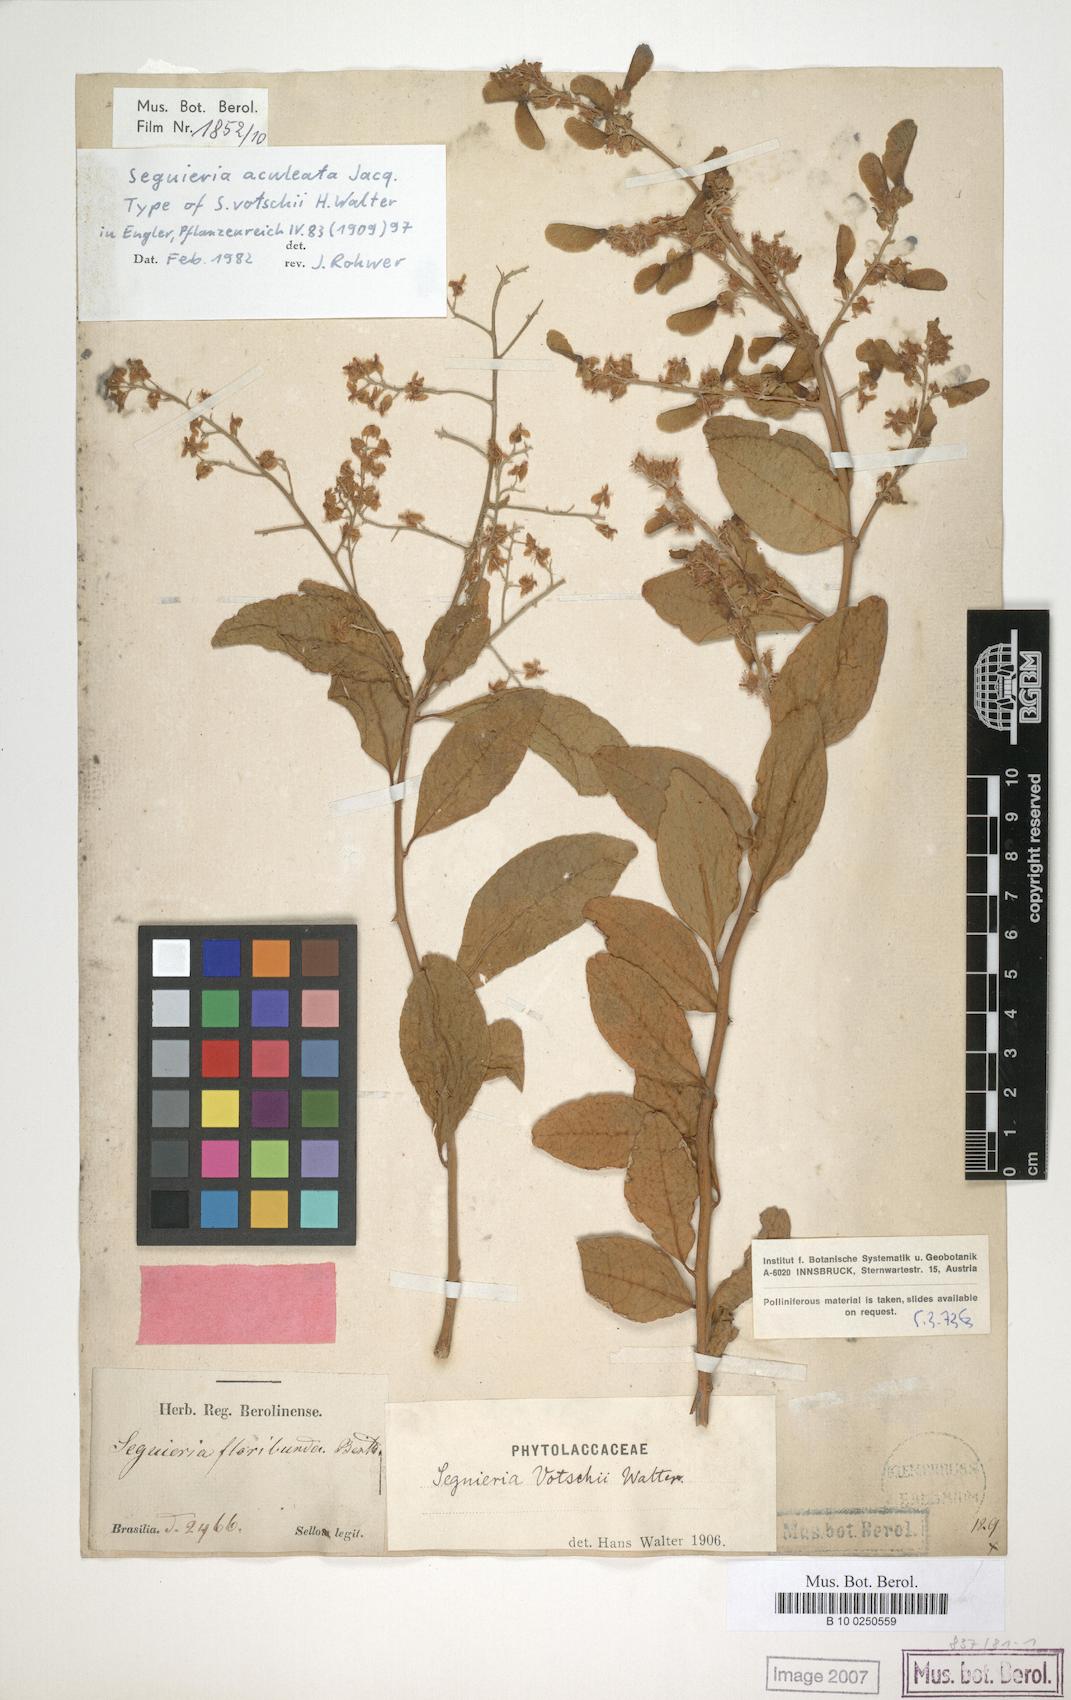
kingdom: Plantae
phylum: Tracheophyta
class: Magnoliopsida
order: Caryophyllales
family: Phytolaccaceae
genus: Seguieria
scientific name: Seguieria aculeata
